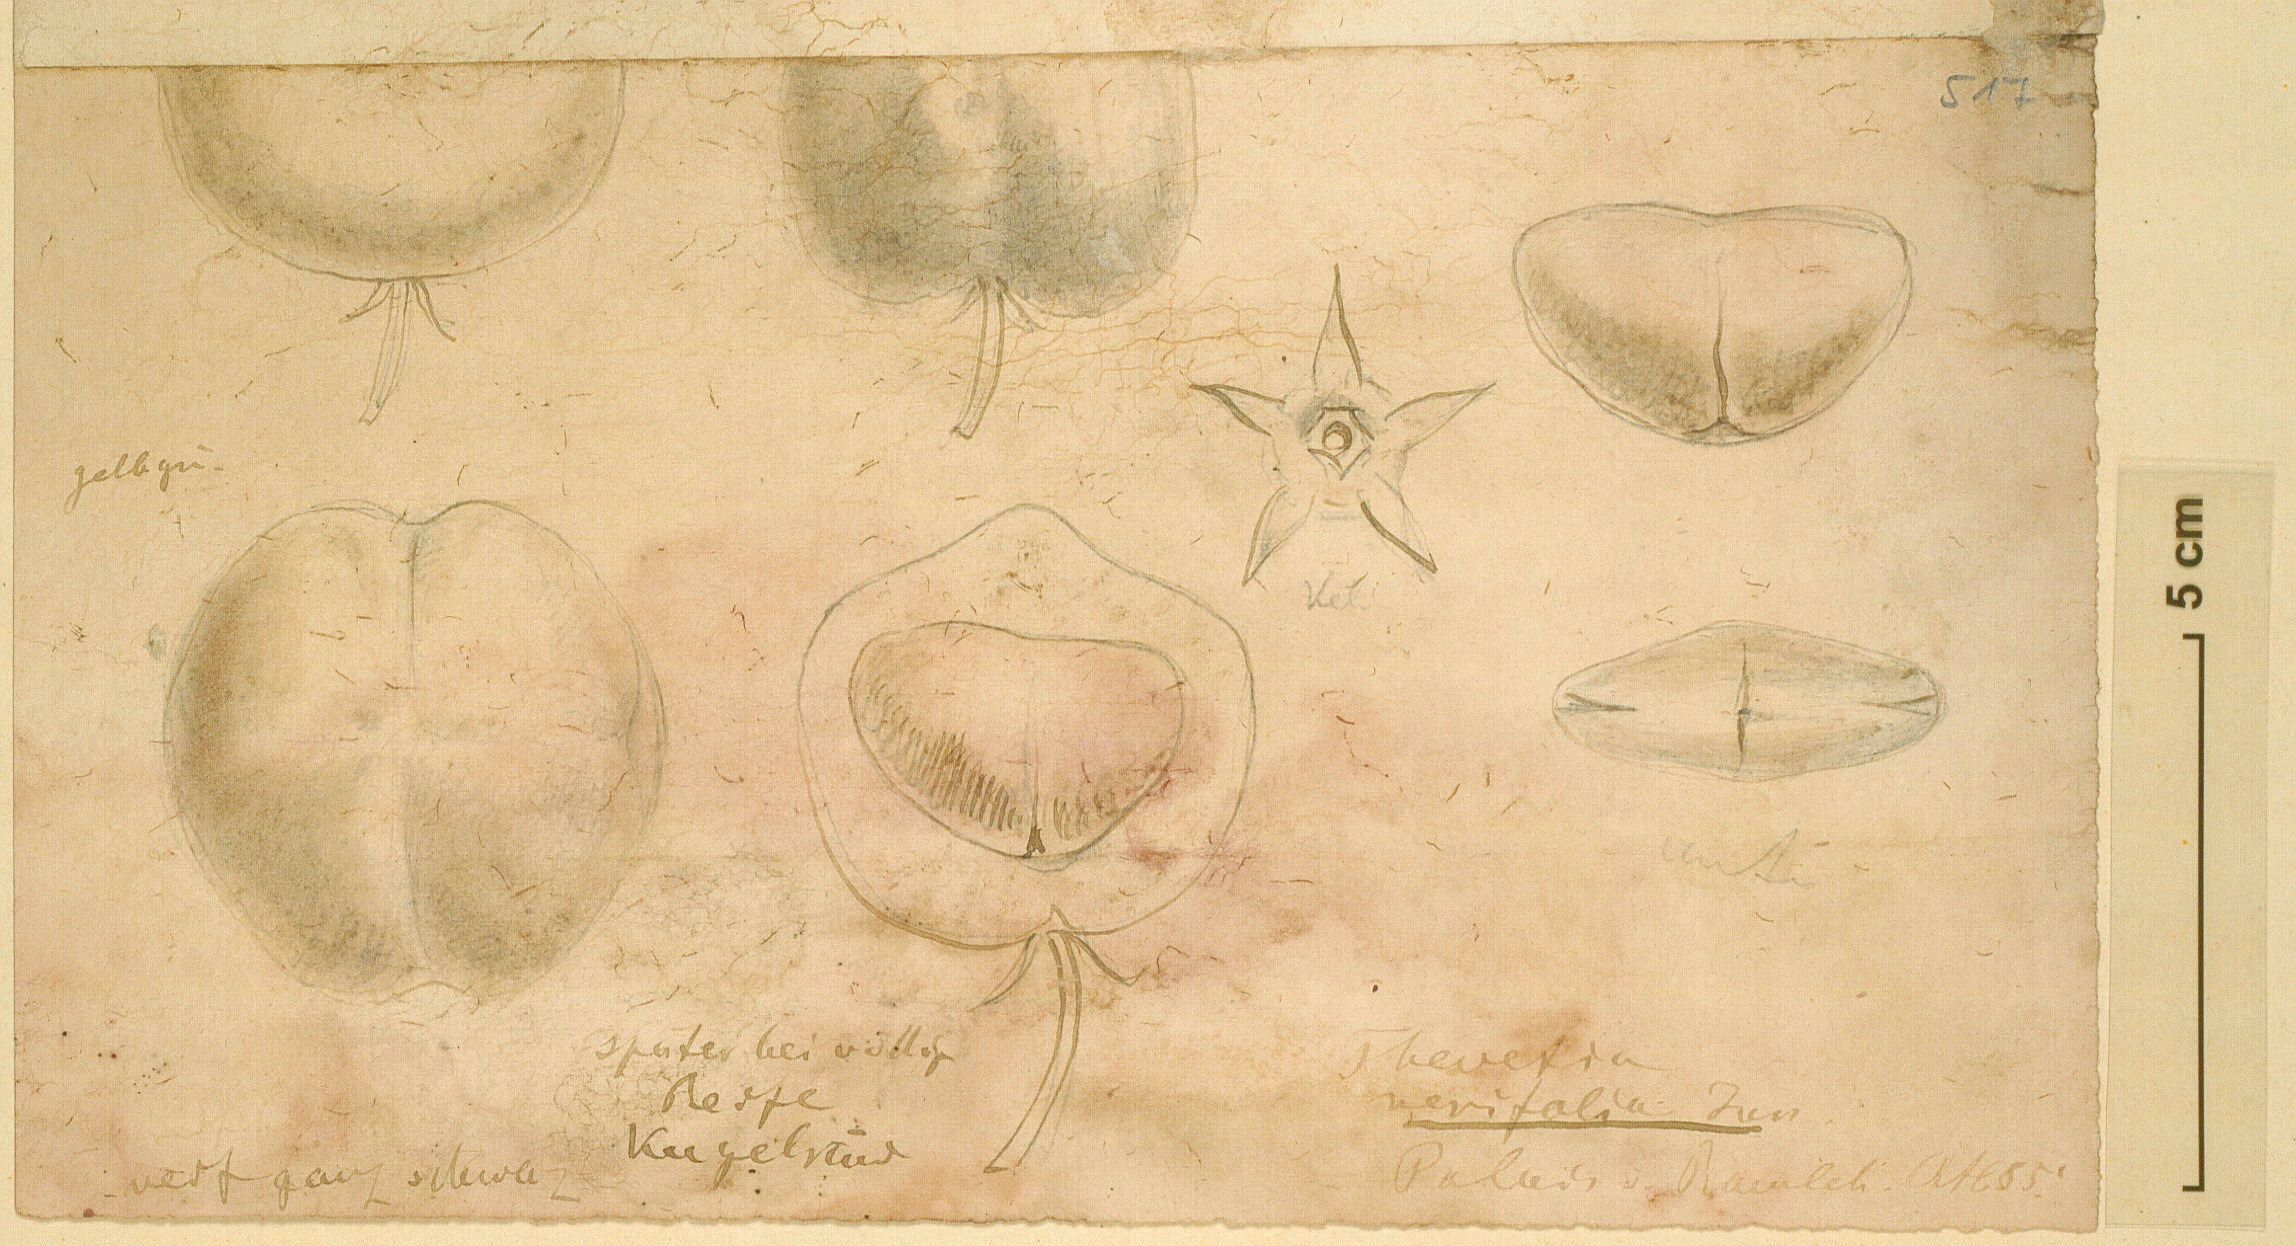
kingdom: Plantae
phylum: Tracheophyta
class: Magnoliopsida
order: Gentianales
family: Apocynaceae
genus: Cascabela
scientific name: Cascabela thevetia
